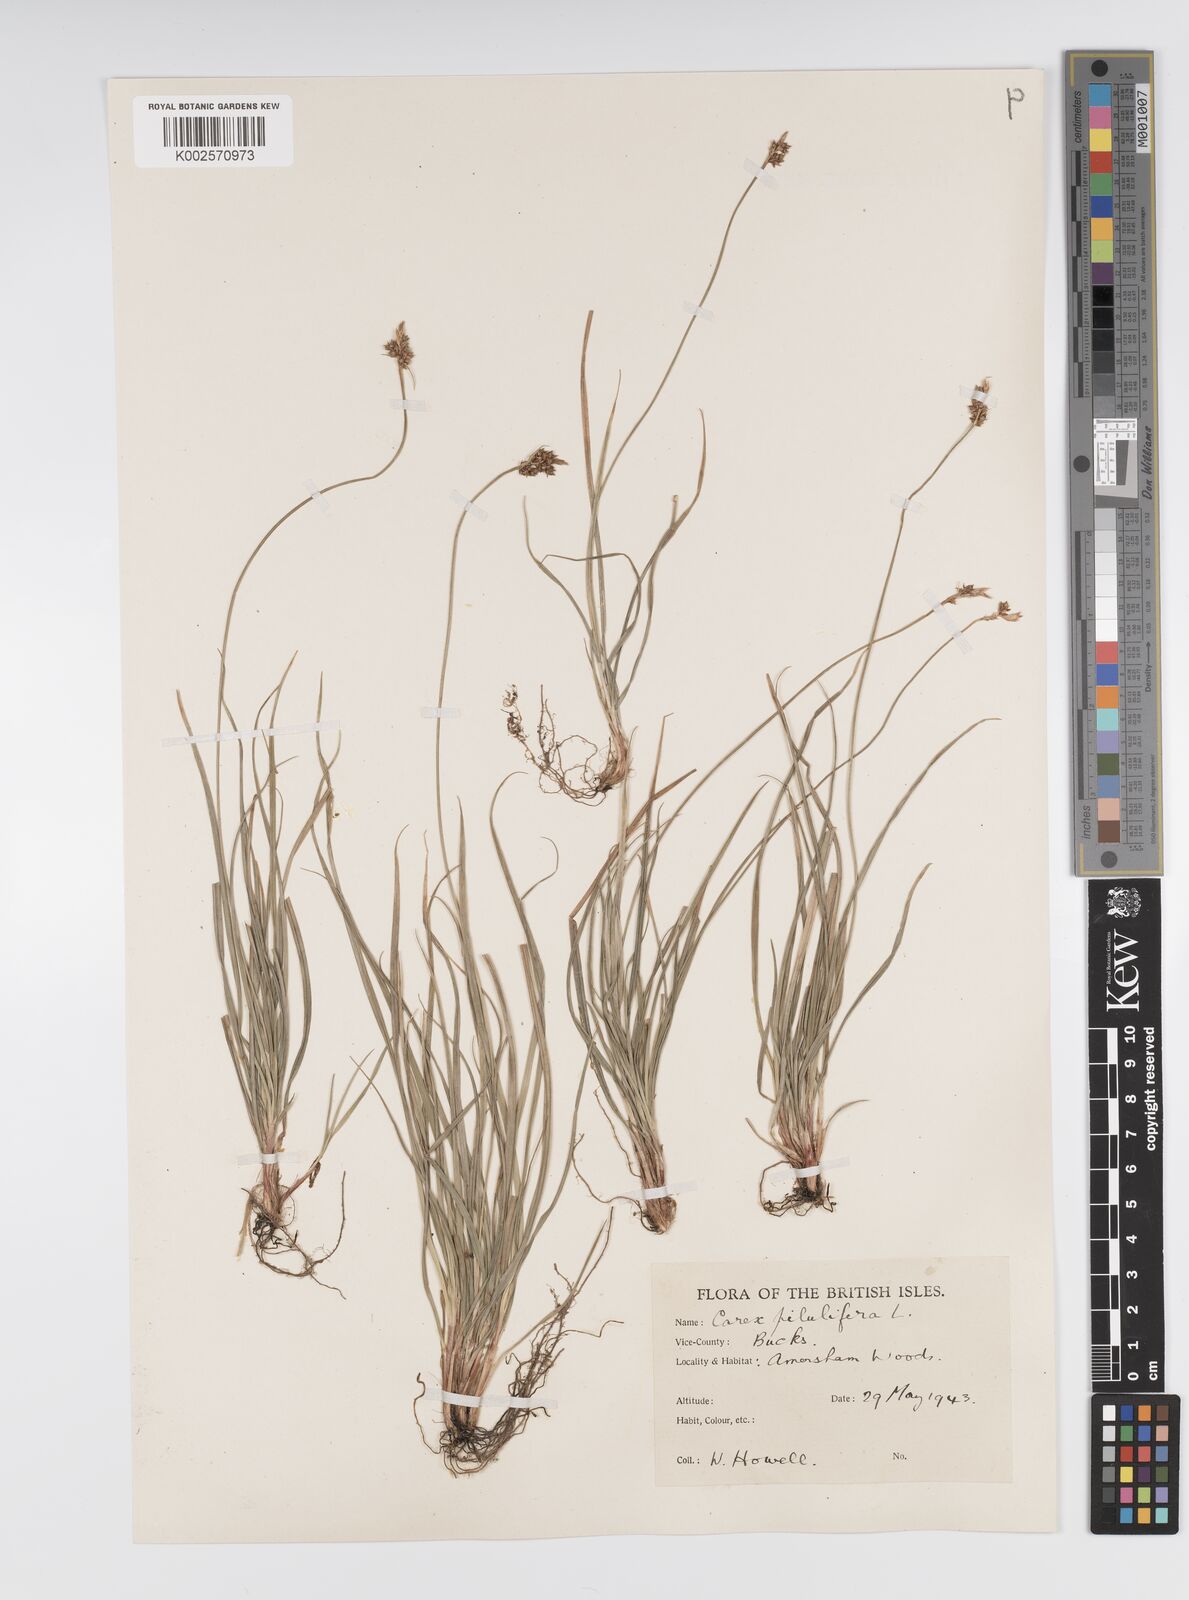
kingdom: Plantae
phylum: Tracheophyta
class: Liliopsida
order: Poales
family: Cyperaceae
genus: Carex
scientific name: Carex pilulifera
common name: Pill sedge
